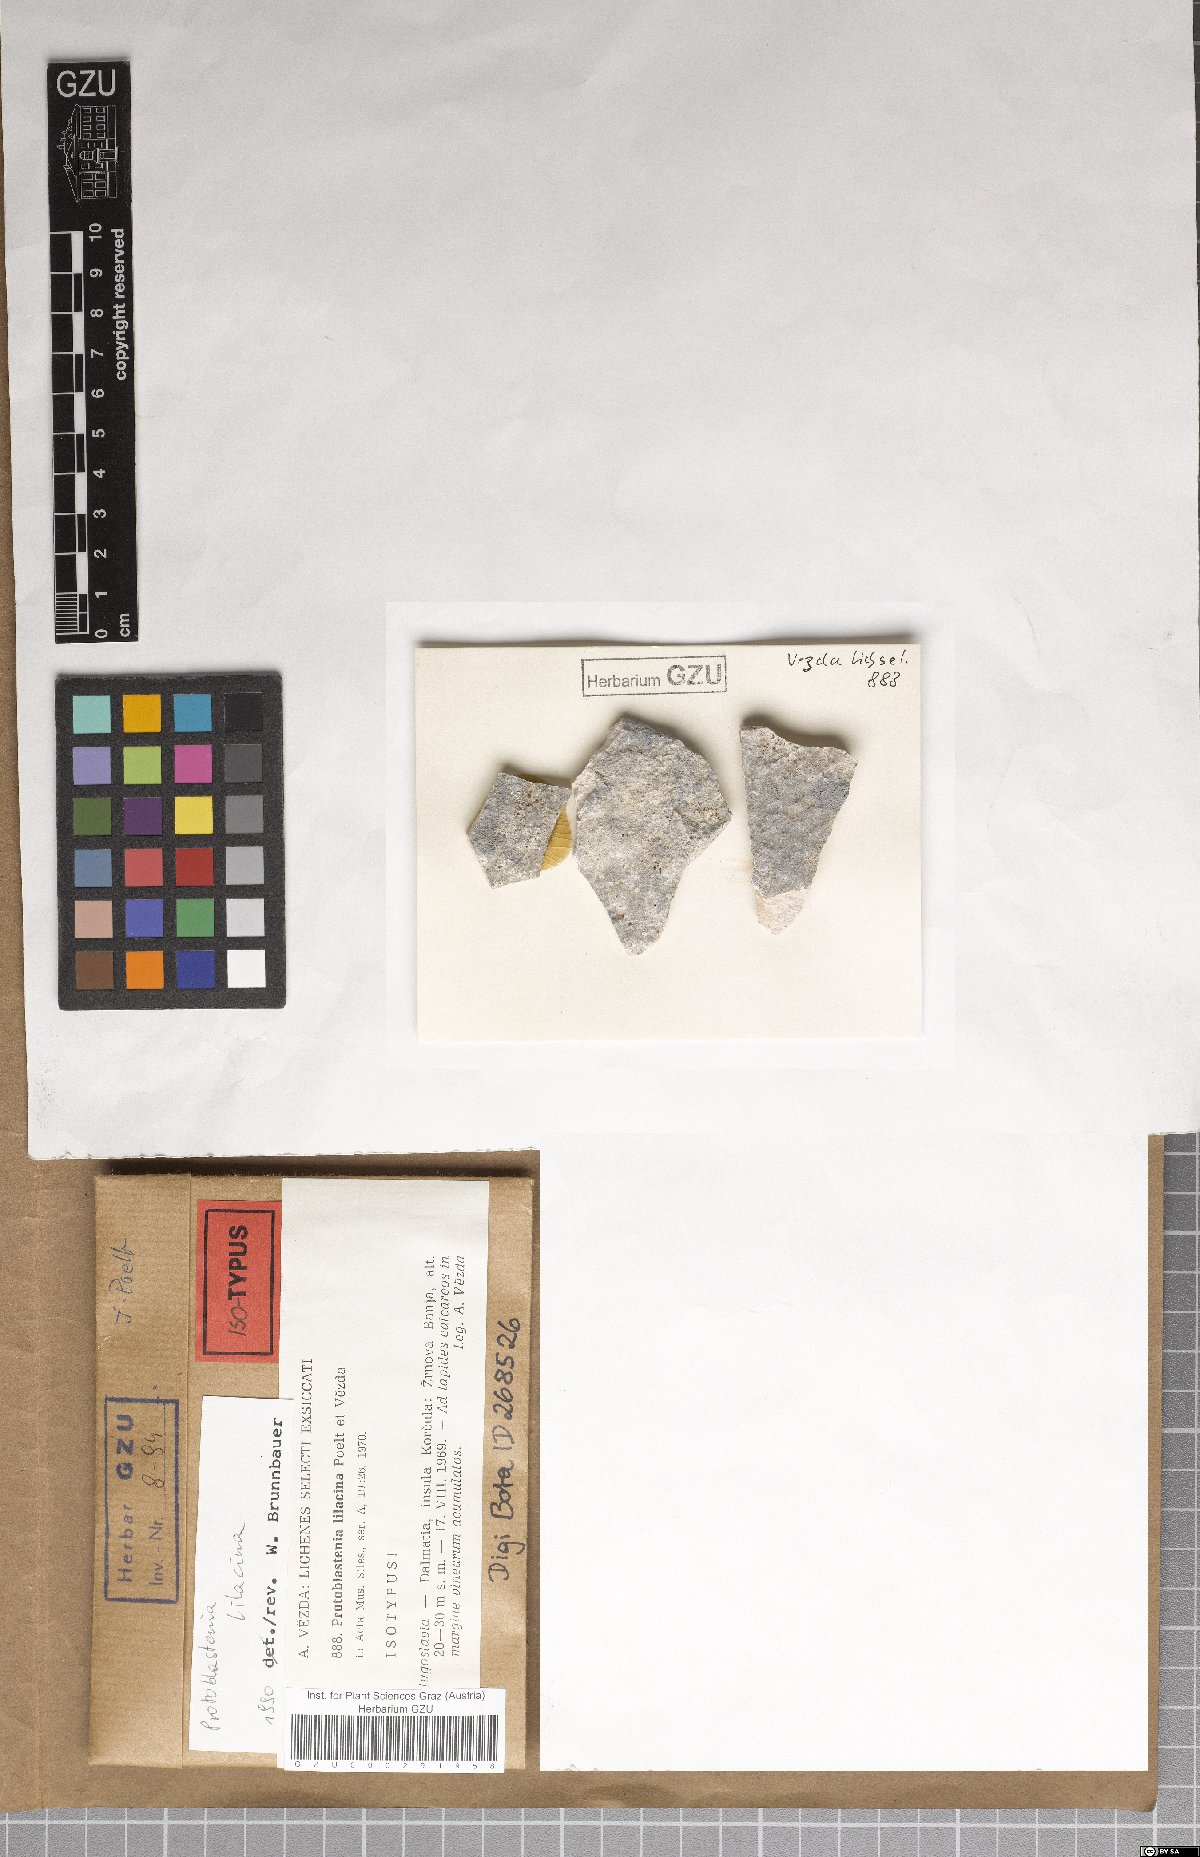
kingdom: Fungi
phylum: Ascomycota
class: Lecanoromycetes
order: Lecanorales
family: Psoraceae
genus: Protoblastenia
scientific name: Protoblastenia lilacina
